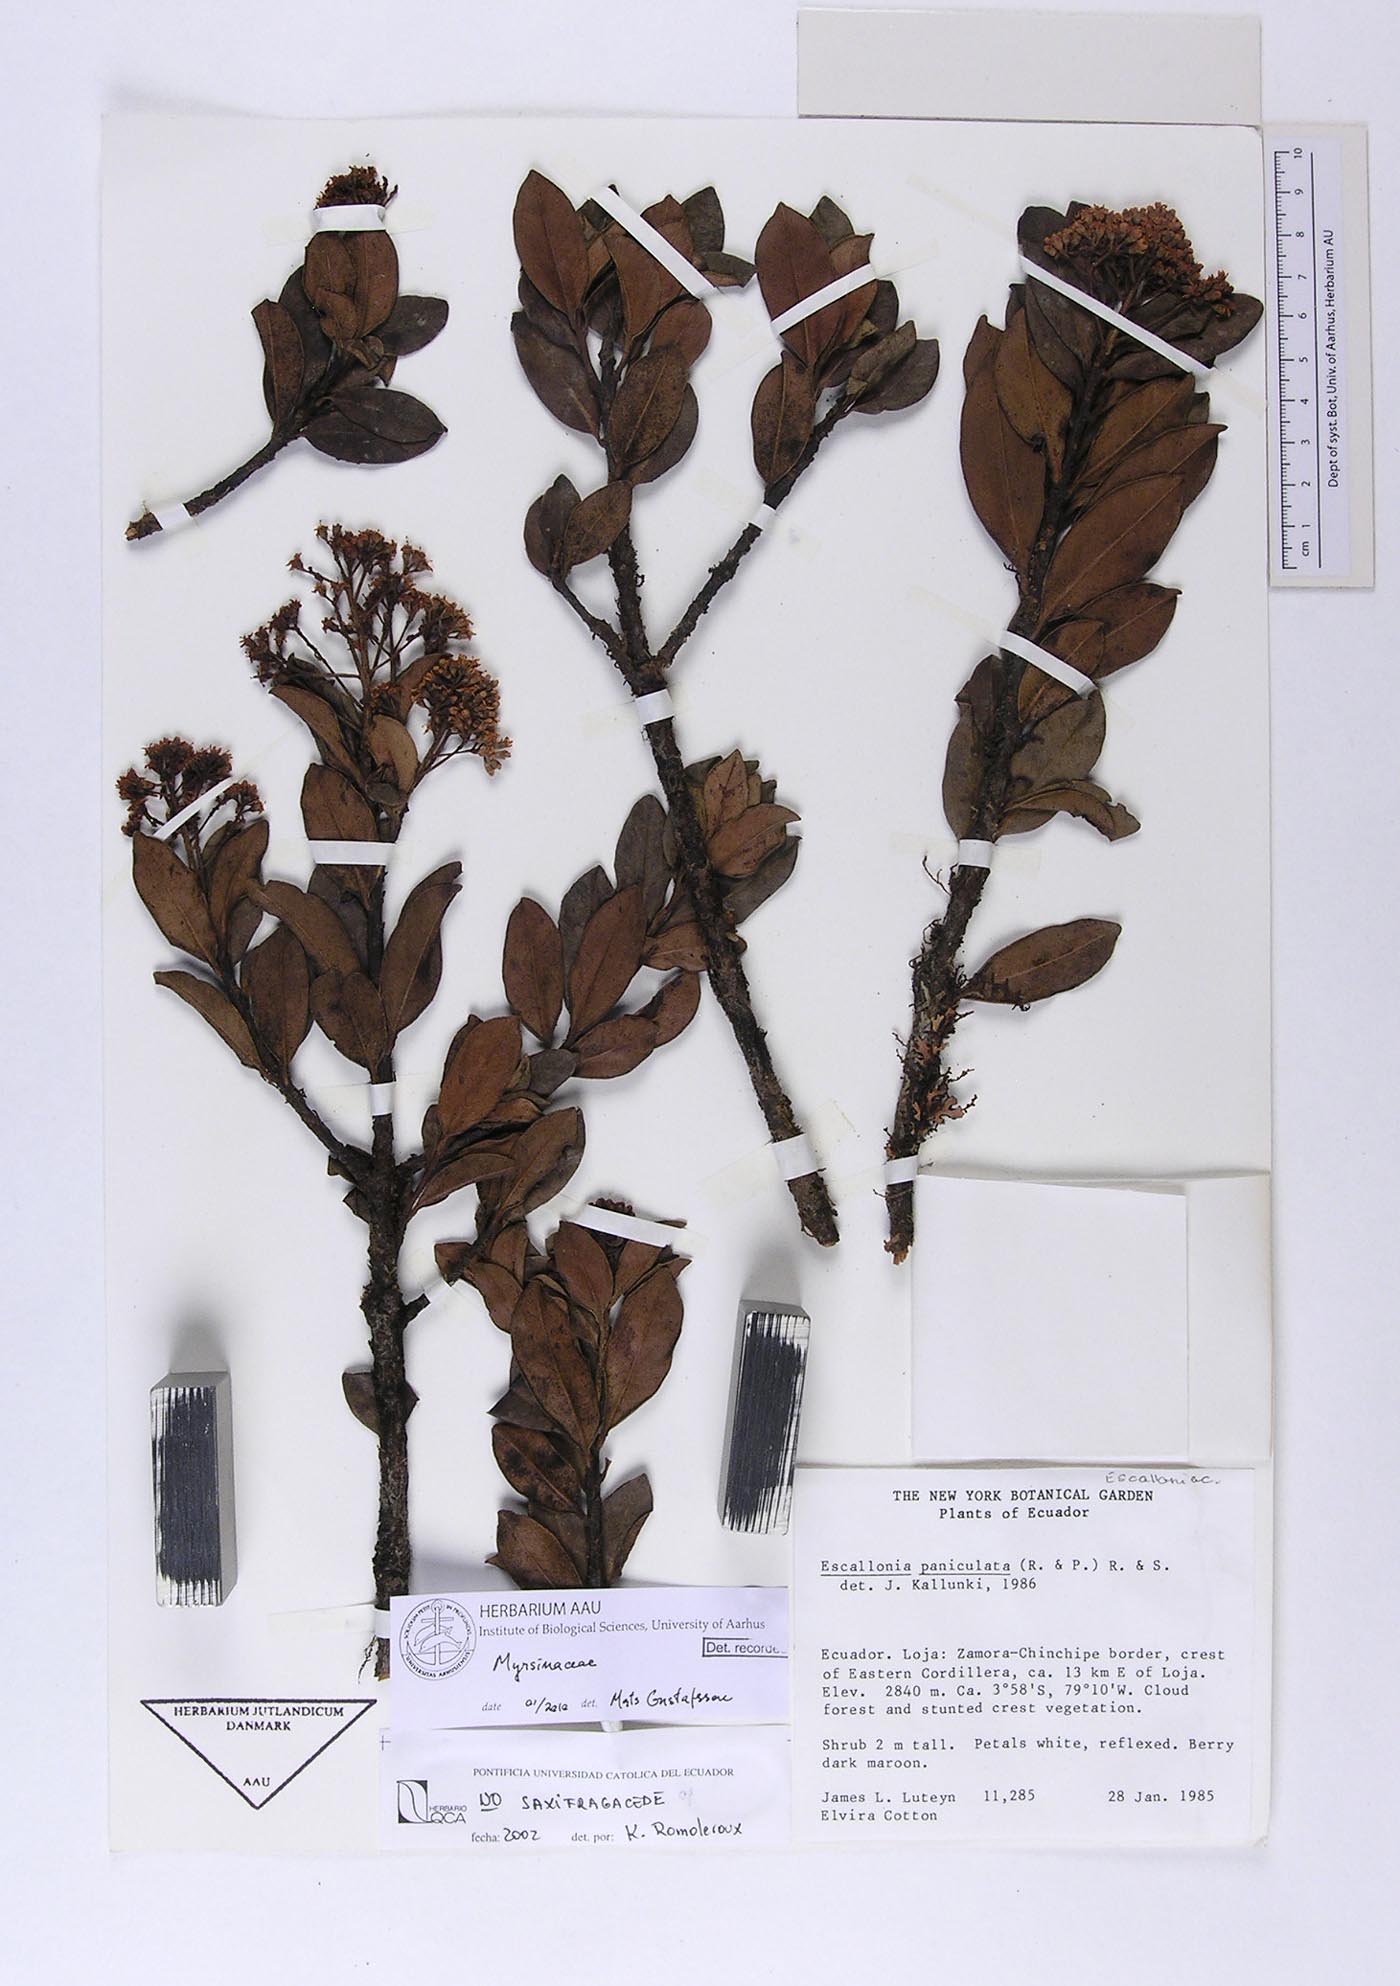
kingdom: Plantae
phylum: Tracheophyta
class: Magnoliopsida
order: Ericales
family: Primulaceae
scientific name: Primulaceae
